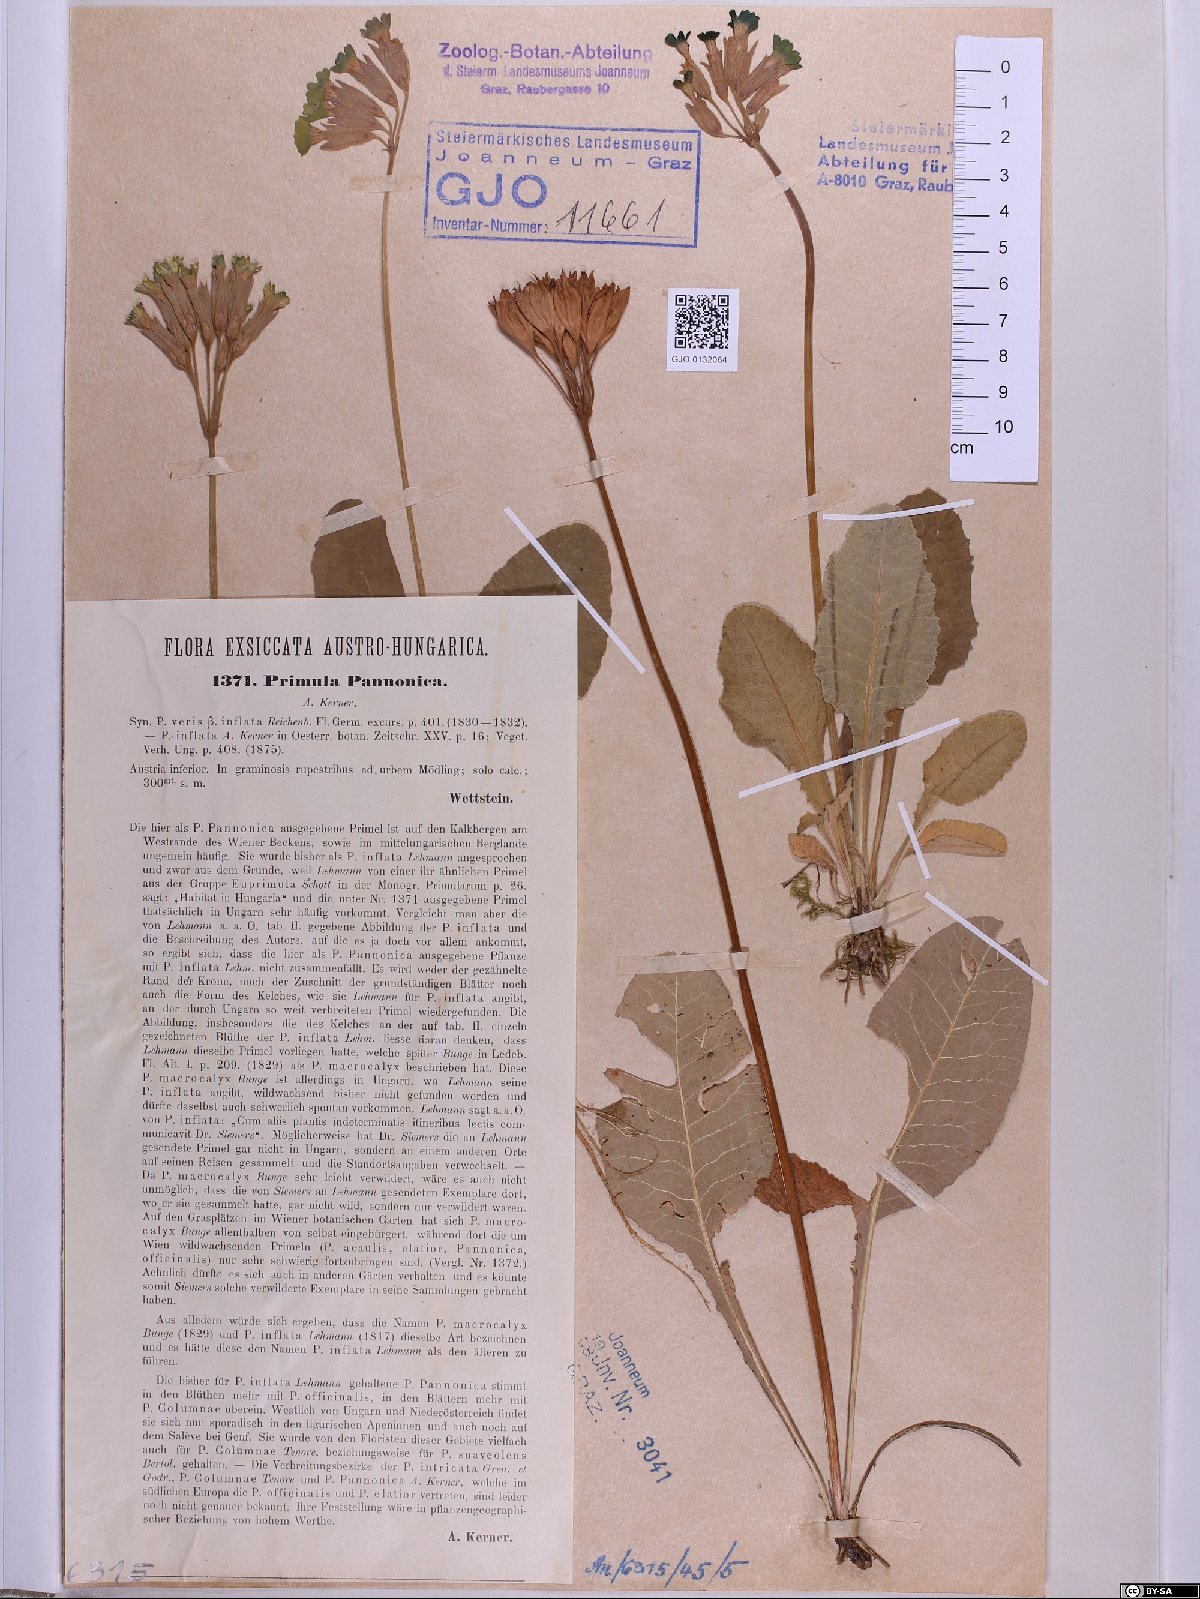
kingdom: Plantae
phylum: Tracheophyta
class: Magnoliopsida
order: Ericales
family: Primulaceae
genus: Primula
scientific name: Primula veris
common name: Cowslip
